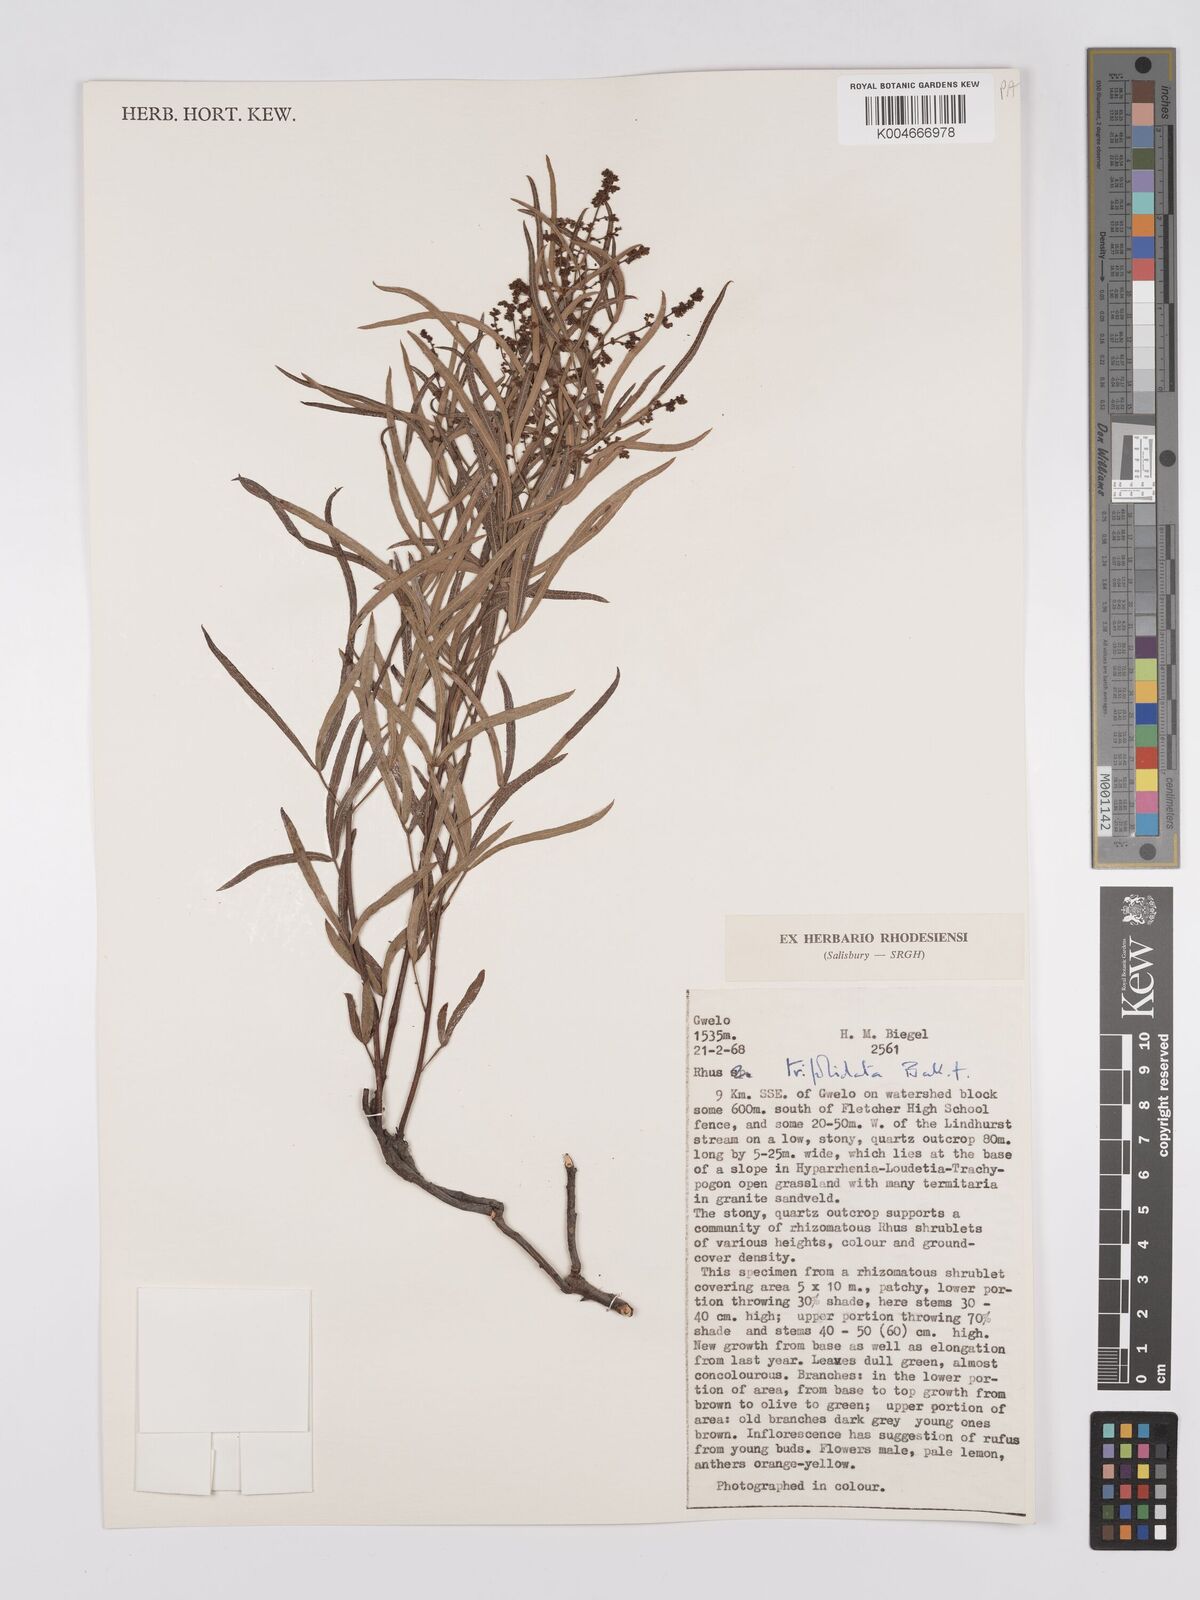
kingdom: Plantae
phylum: Tracheophyta
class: Magnoliopsida
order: Sapindales
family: Anacardiaceae
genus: Searsia
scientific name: Searsia magalismontana
